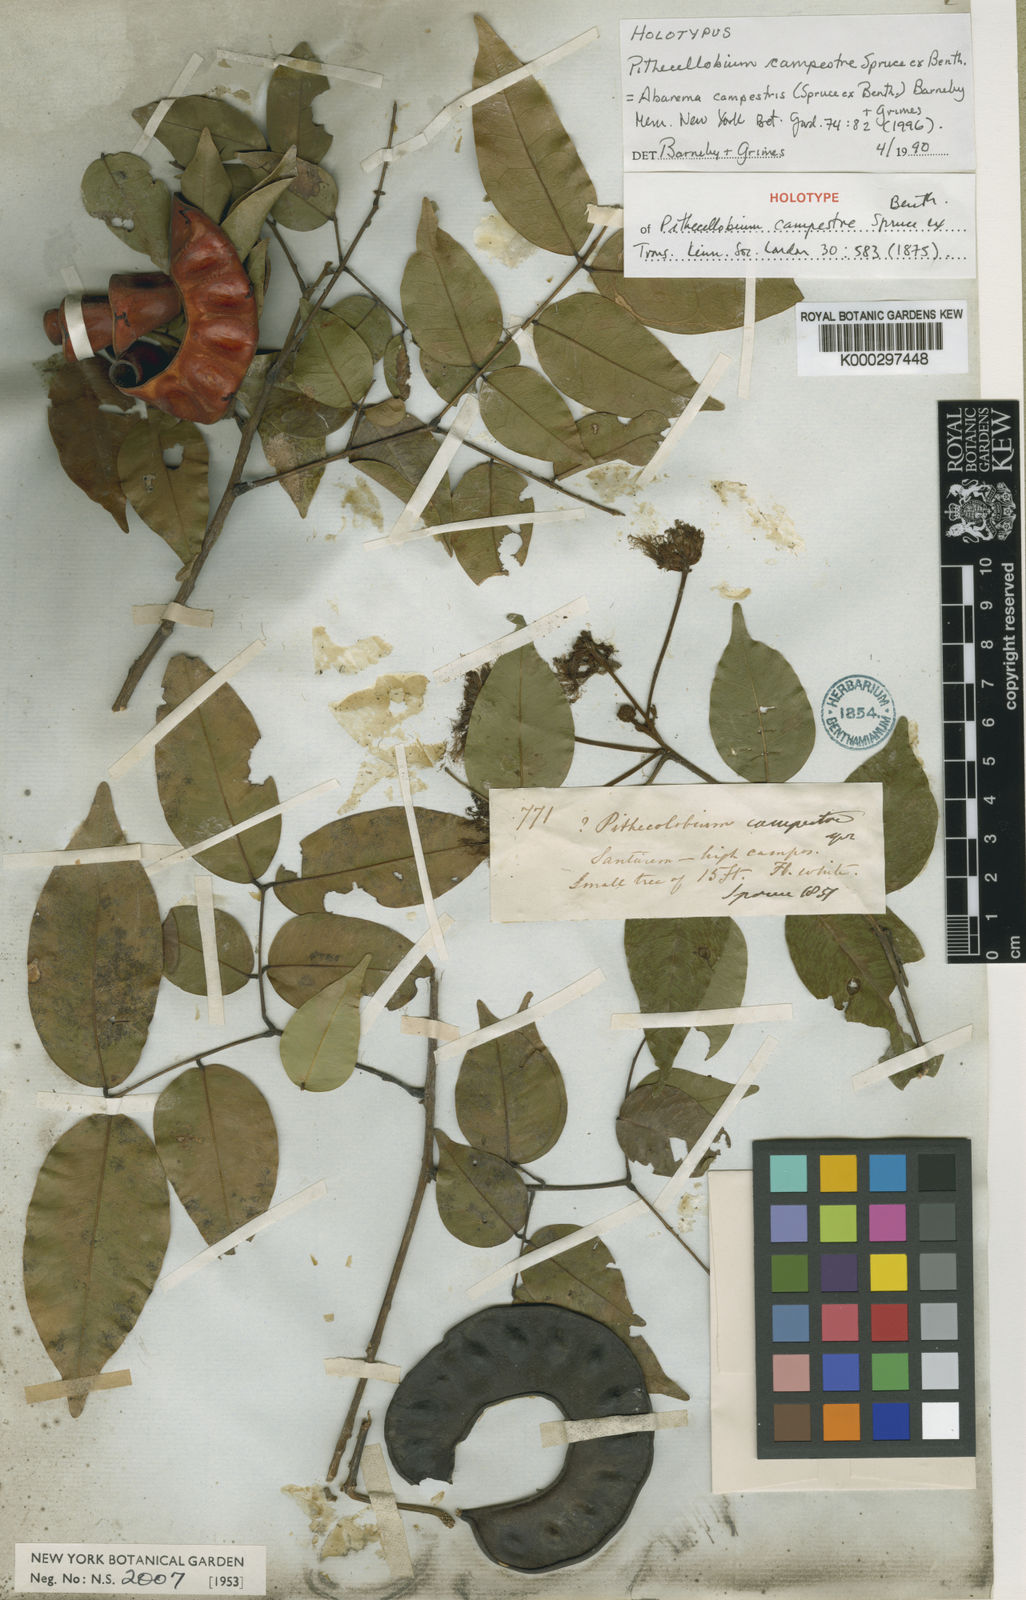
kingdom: Plantae
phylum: Tracheophyta
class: Magnoliopsida
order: Fabales
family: Fabaceae
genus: Jupunba
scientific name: Jupunba campestris
